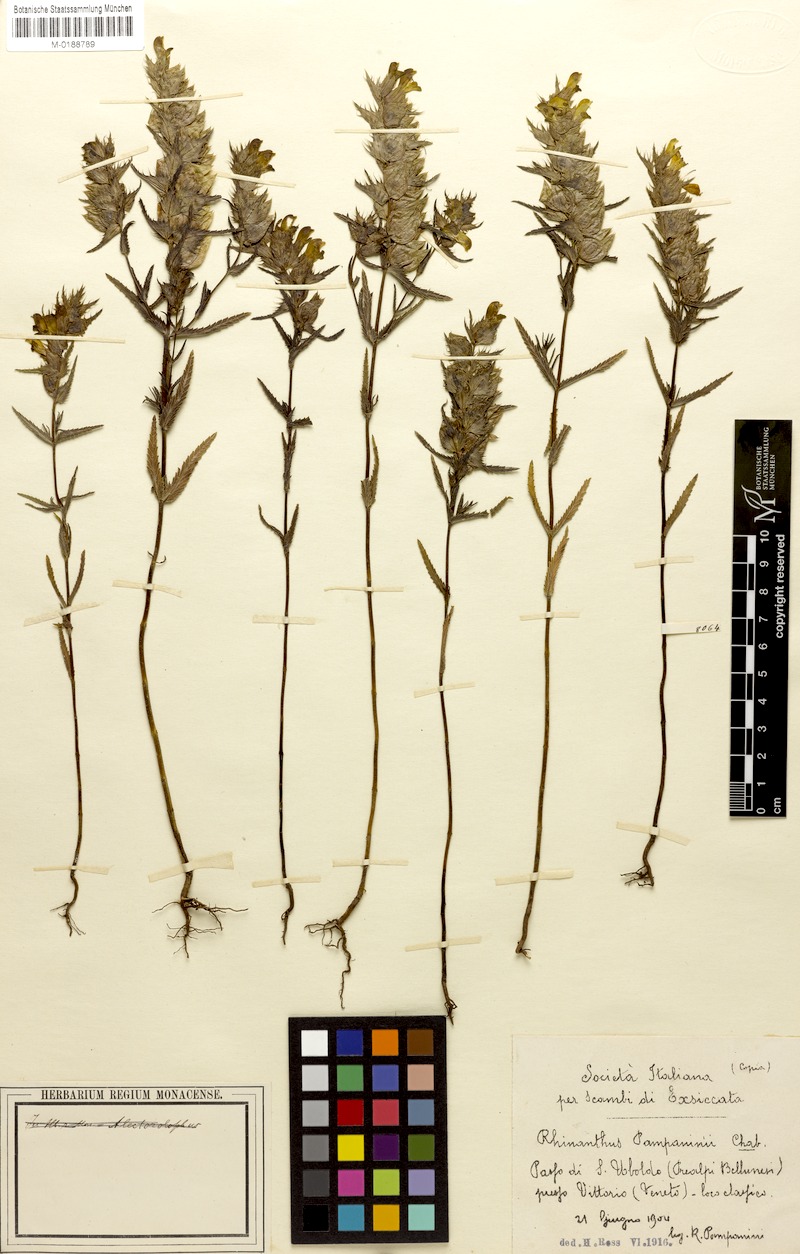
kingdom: Plantae
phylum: Tracheophyta
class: Magnoliopsida
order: Lamiales
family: Orobanchaceae
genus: Rhinanthus
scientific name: Rhinanthus pampaninii
